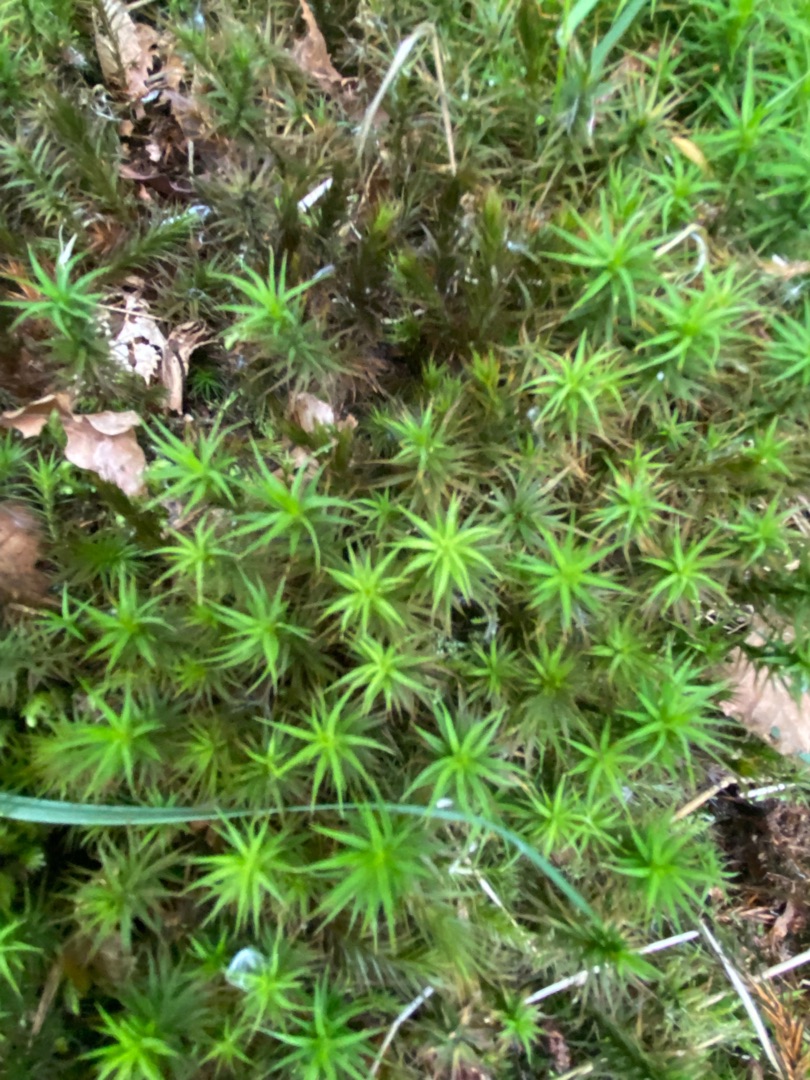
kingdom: Plantae
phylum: Bryophyta
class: Polytrichopsida
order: Polytrichales
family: Polytrichaceae
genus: Polytrichum
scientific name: Polytrichum
